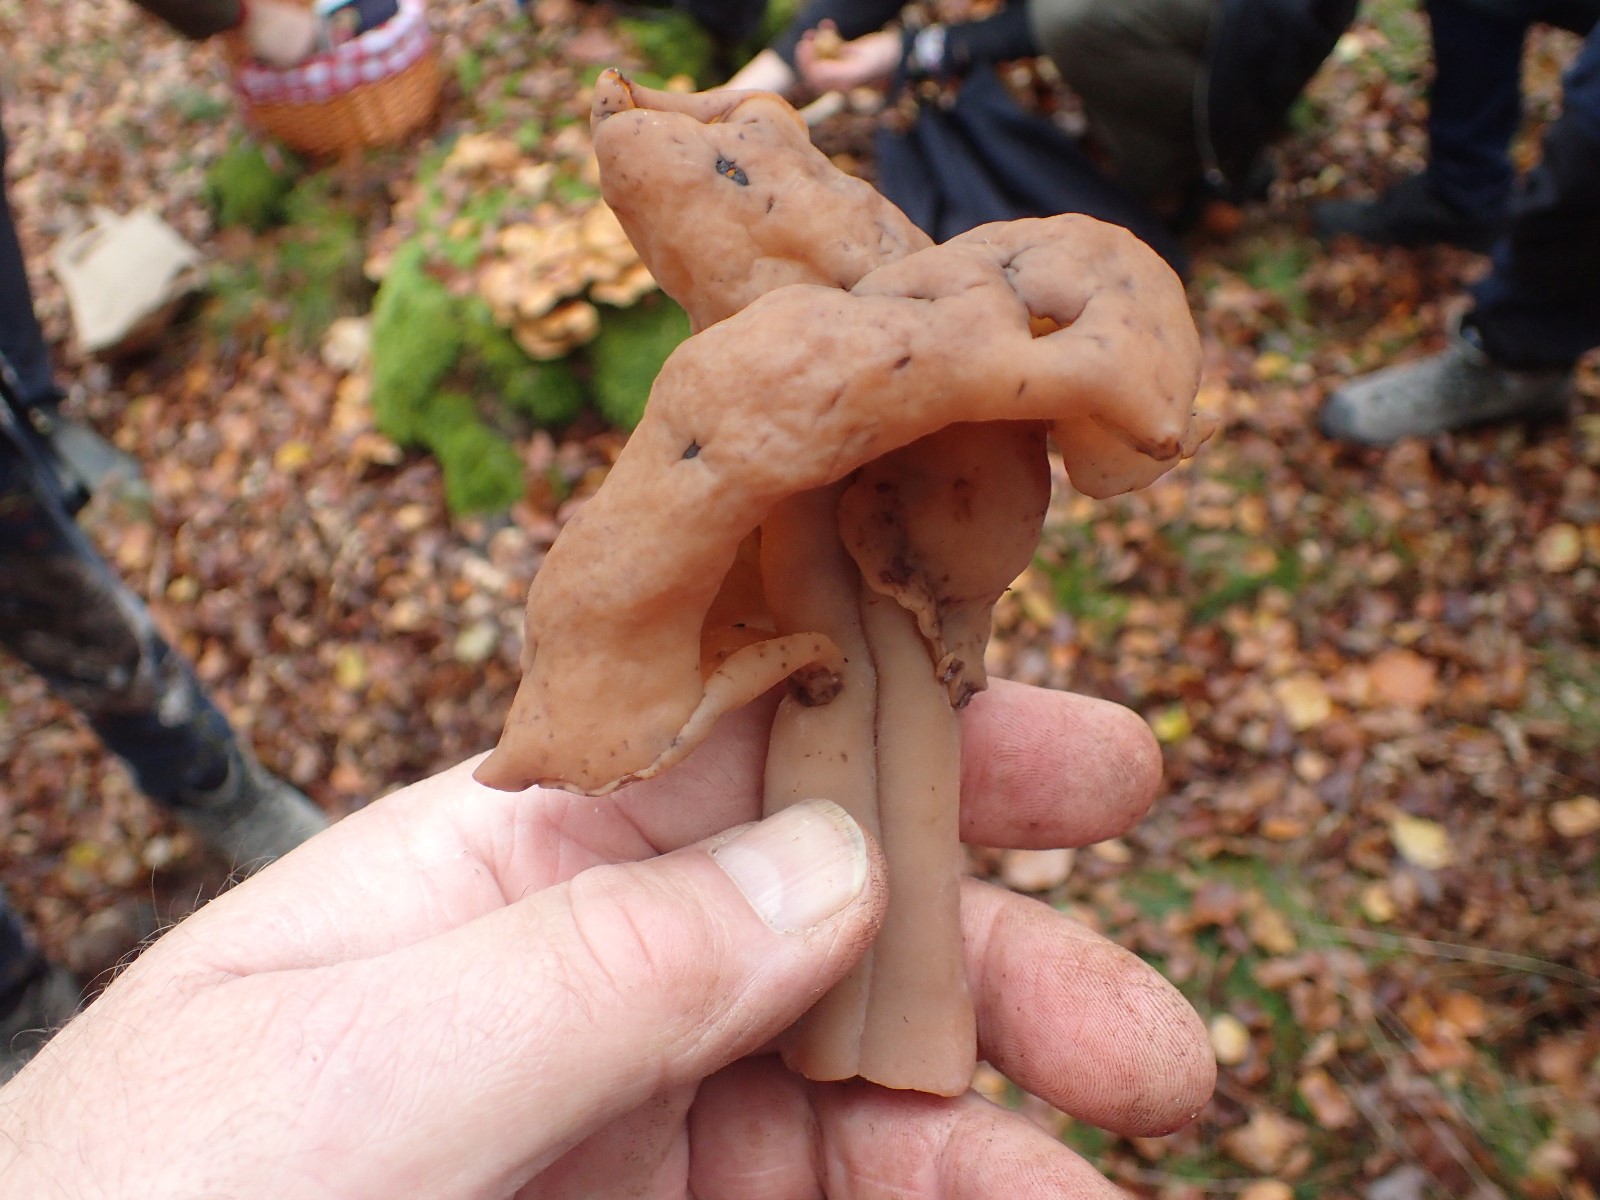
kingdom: Fungi
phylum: Ascomycota
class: Pezizomycetes
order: Pezizales
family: Discinaceae
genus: Gyromitra
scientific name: Gyromitra infula
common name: bispehue-stenmorkel
